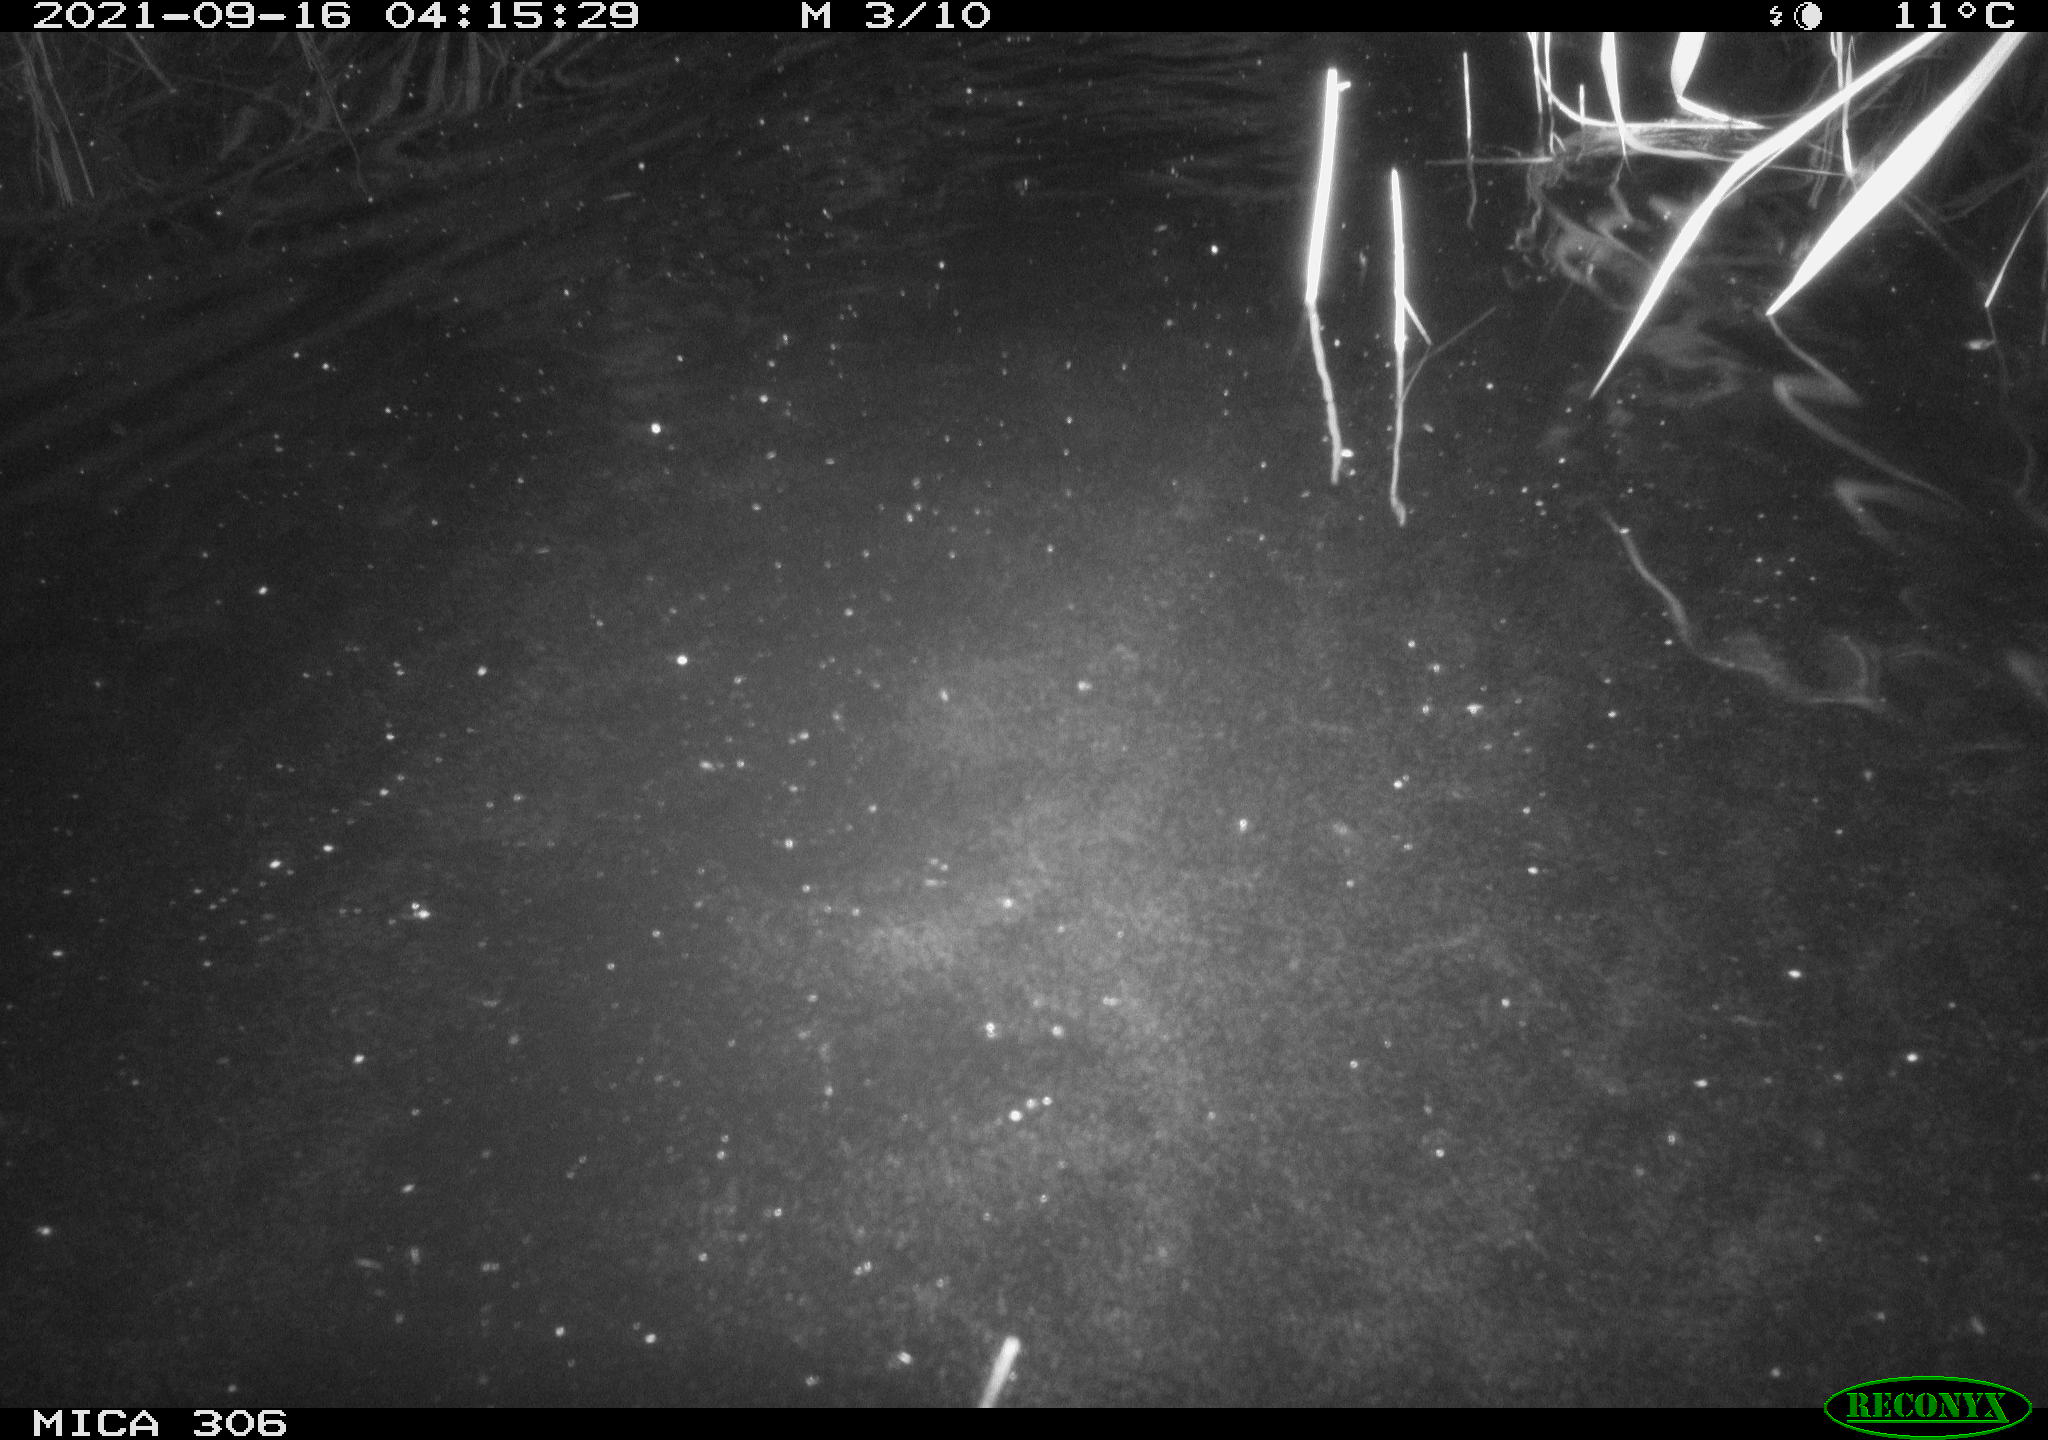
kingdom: Animalia
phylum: Chordata
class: Mammalia
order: Rodentia
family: Cricetidae
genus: Ondatra
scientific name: Ondatra zibethicus
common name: Muskrat
